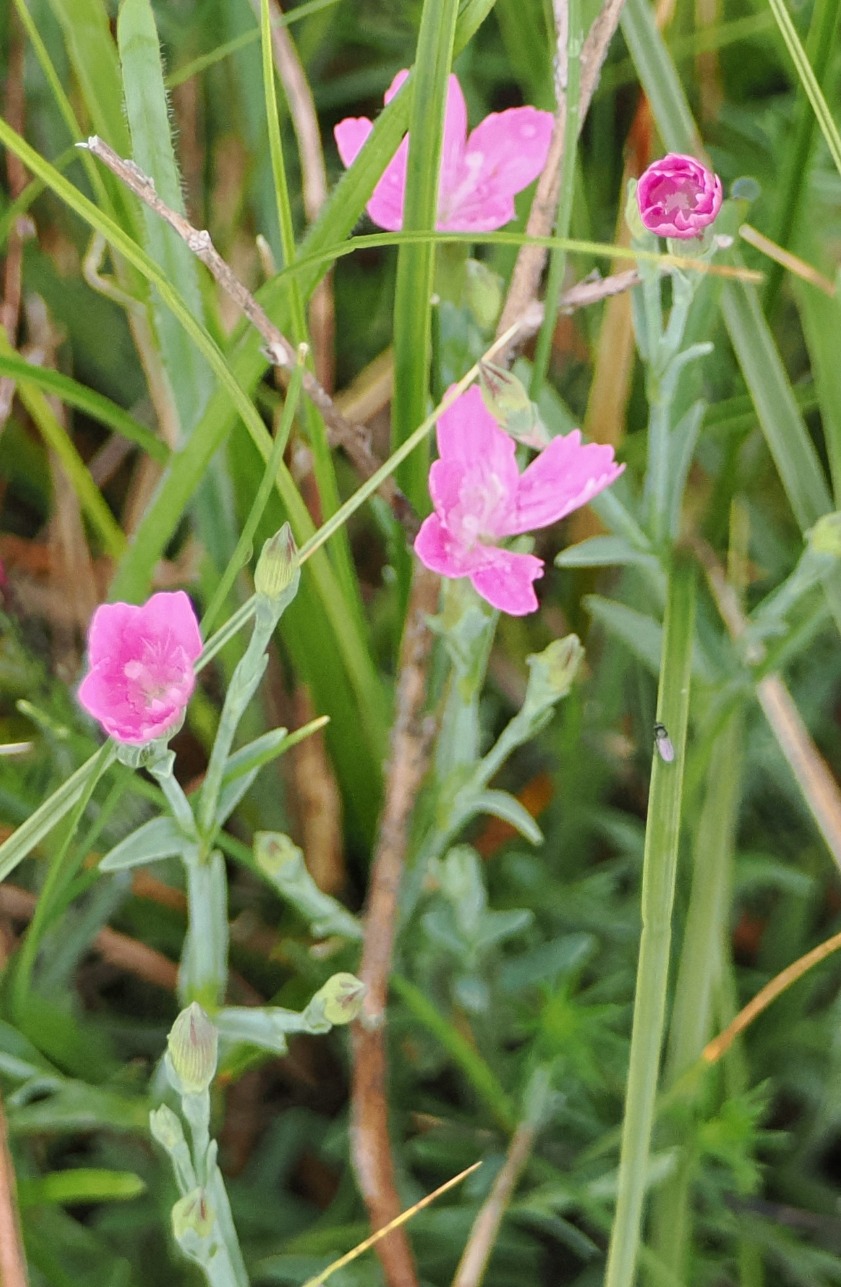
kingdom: Plantae
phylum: Tracheophyta
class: Magnoliopsida
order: Caryophyllales
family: Caryophyllaceae
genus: Dianthus
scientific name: Dianthus deltoides
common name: Bakke-nellike
